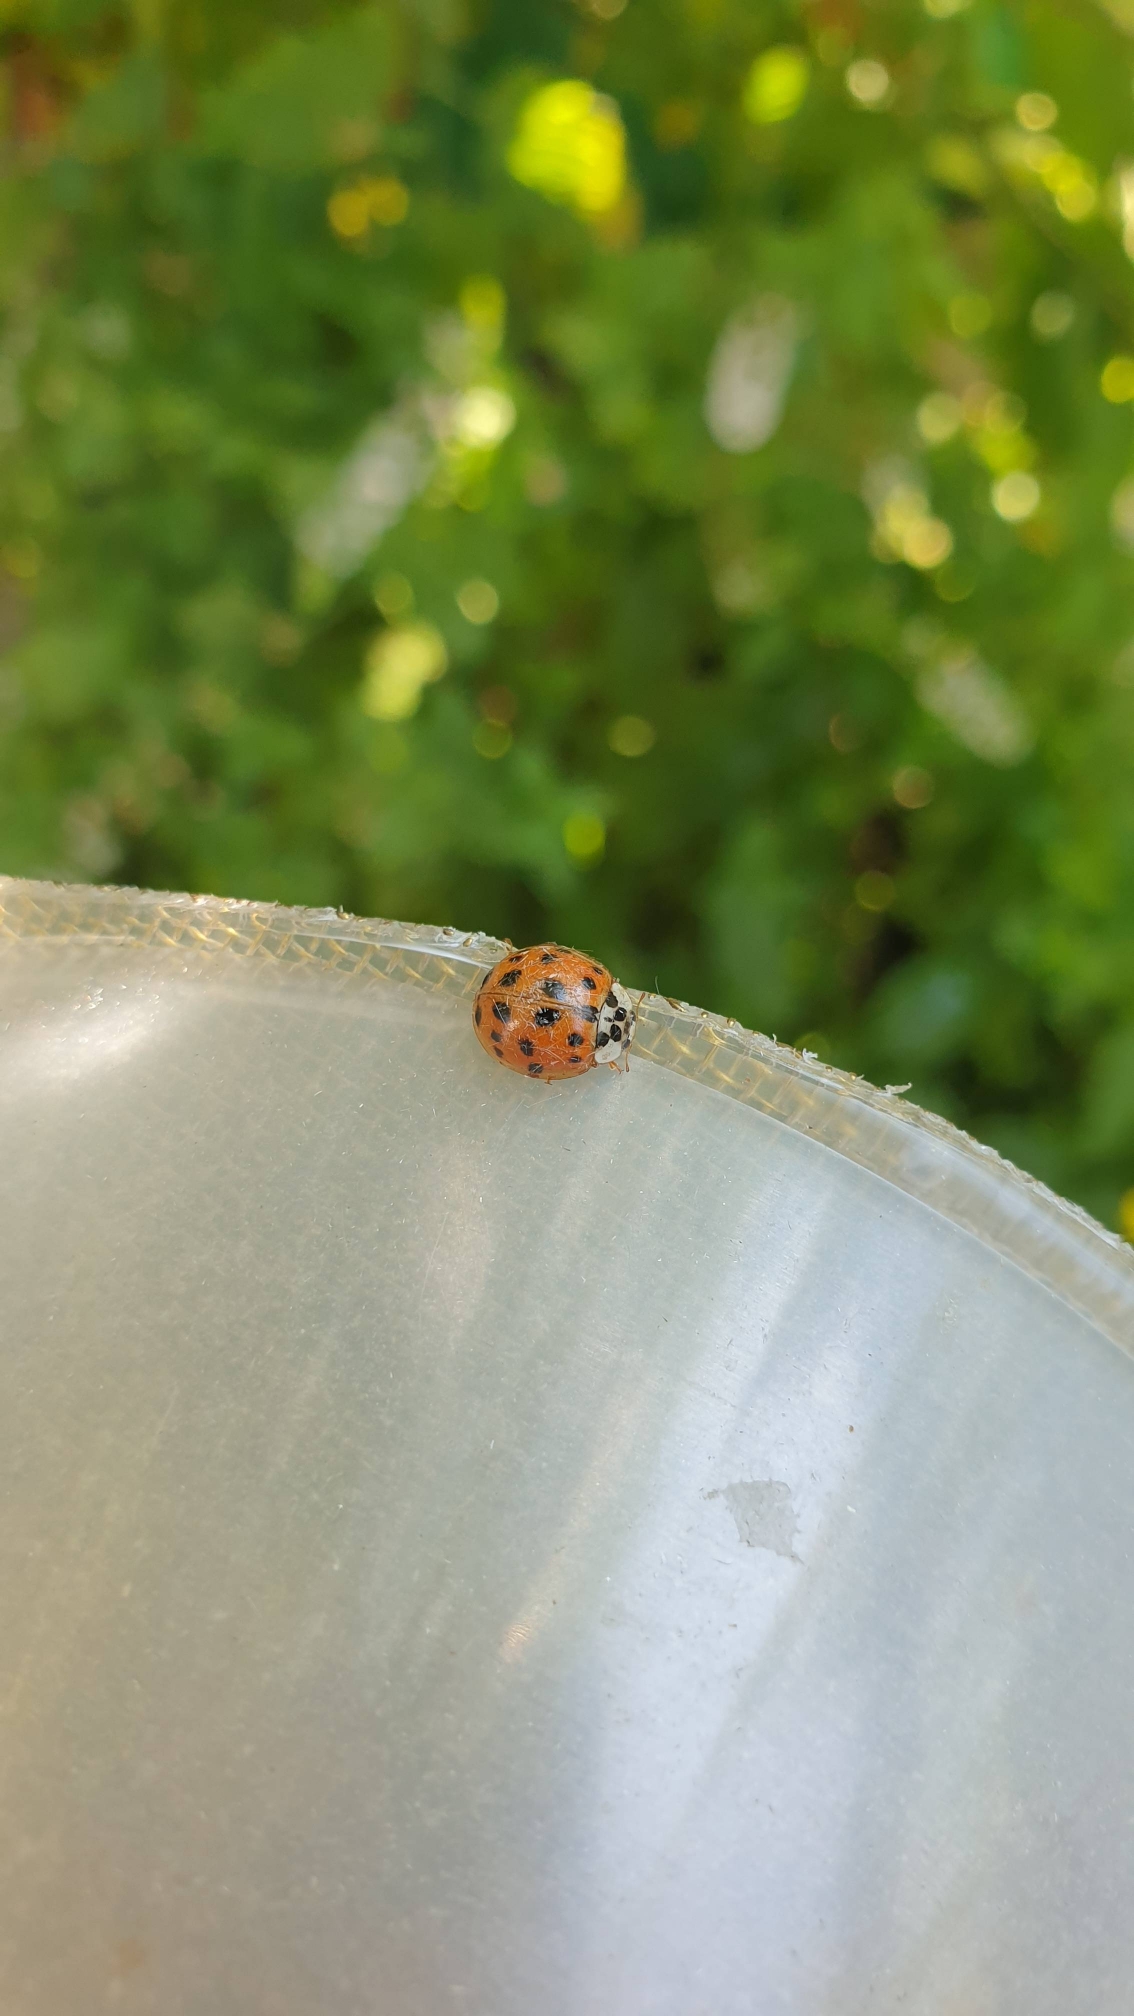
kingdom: Animalia
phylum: Arthropoda
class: Insecta
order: Coleoptera
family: Coccinellidae
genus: Harmonia
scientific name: Harmonia axyridis
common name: Harlekinmariehøne
